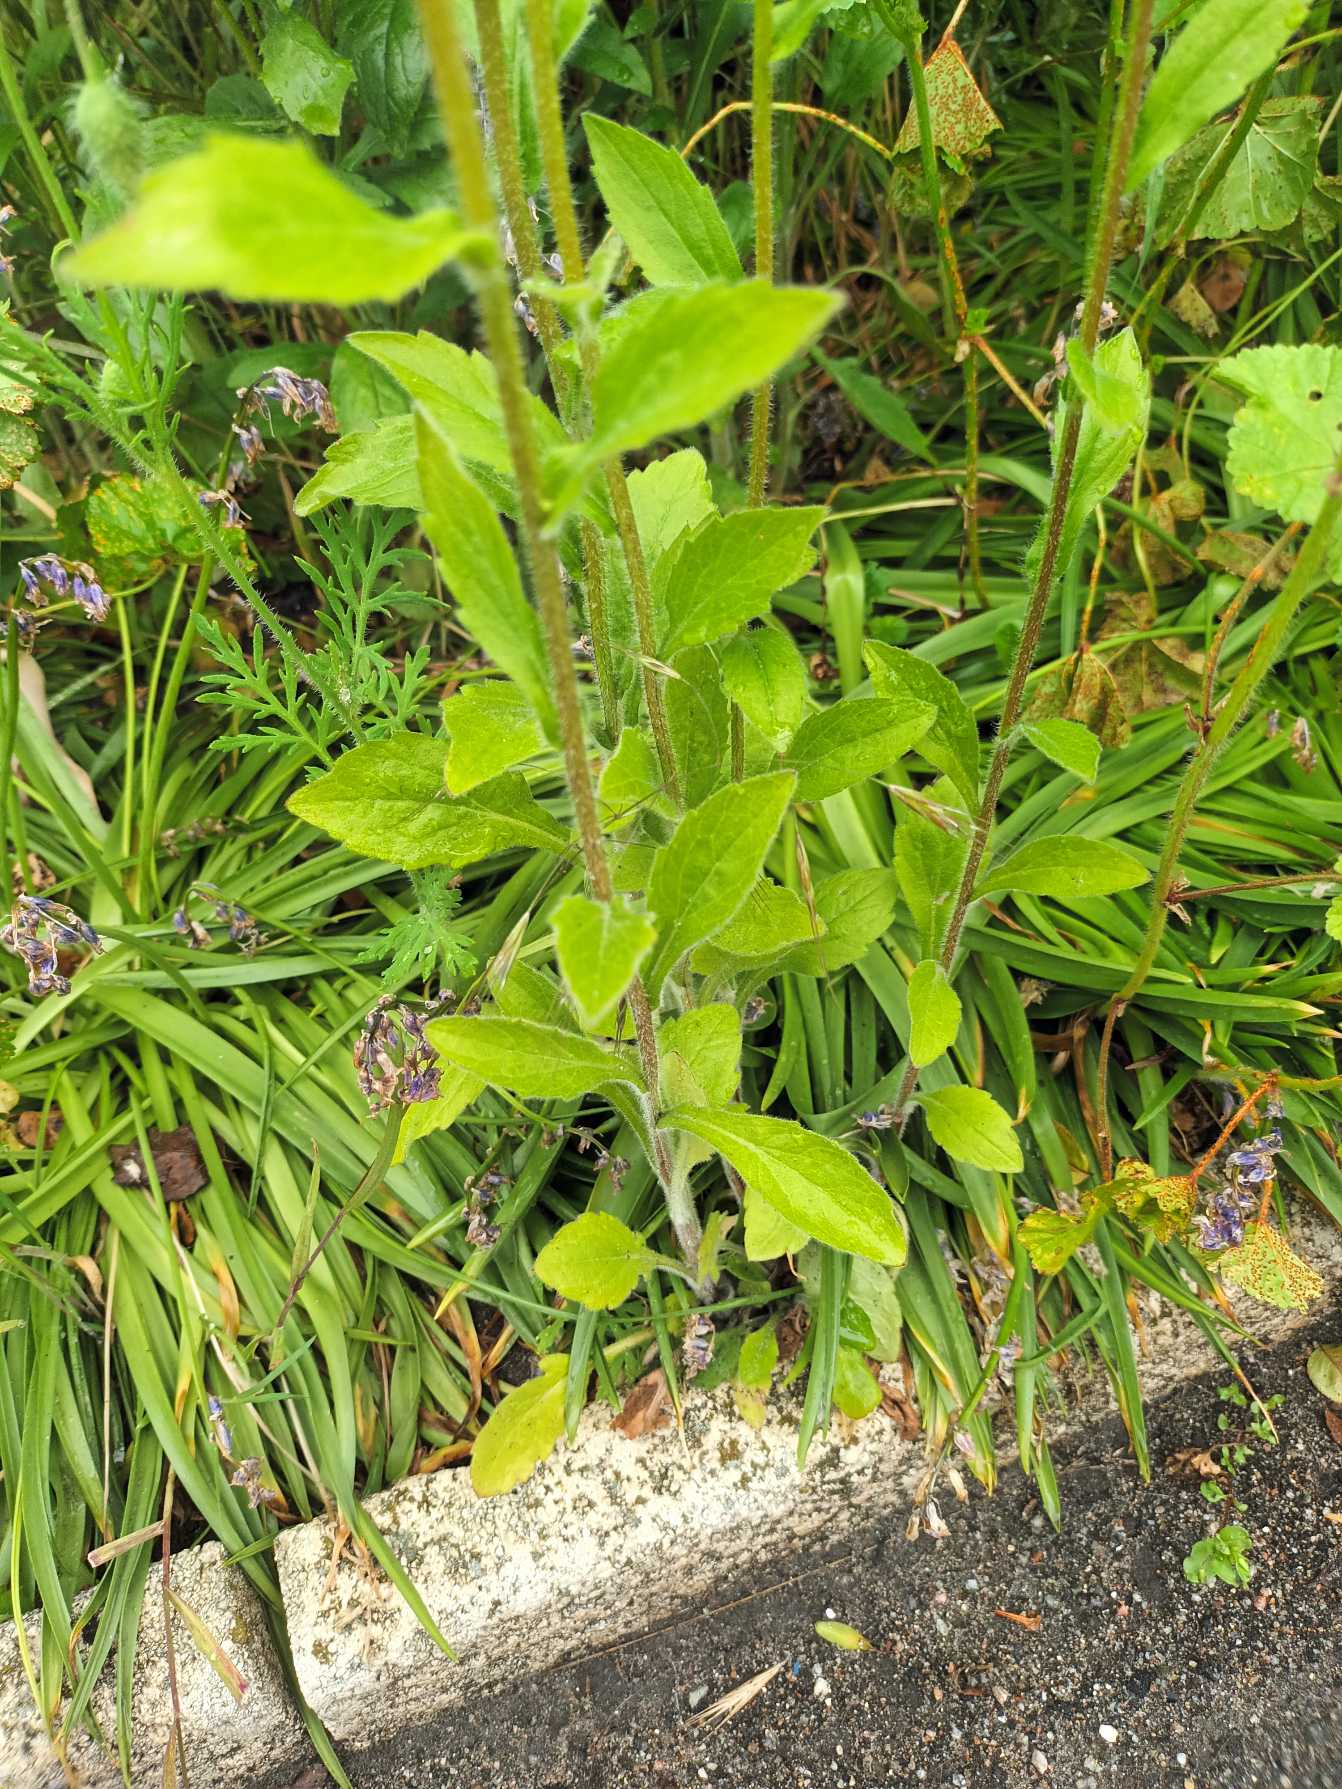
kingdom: Plantae
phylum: Tracheophyta
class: Magnoliopsida
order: Asterales
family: Asteraceae
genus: Erigeron
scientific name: Erigeron annuus
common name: Smalstråle
